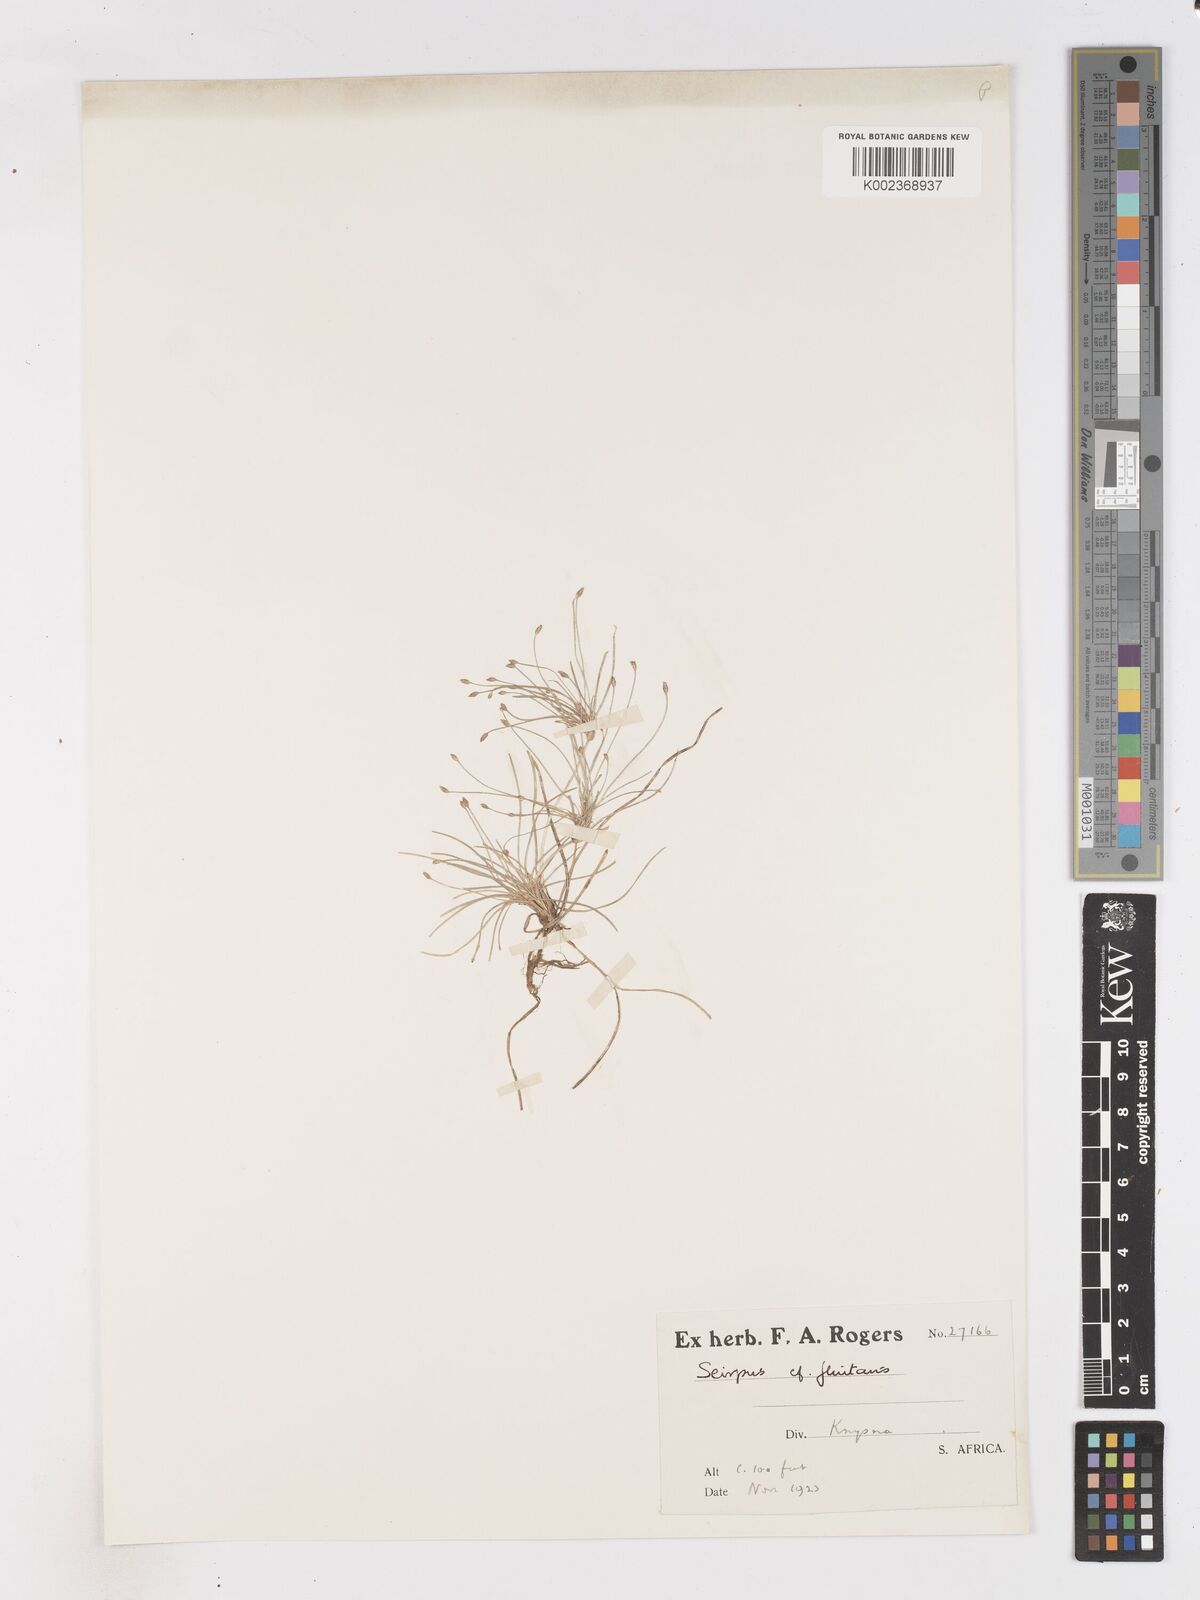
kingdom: Plantae
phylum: Tracheophyta
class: Liliopsida
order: Poales
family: Cyperaceae
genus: Isolepis
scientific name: Isolepis ludwigii
